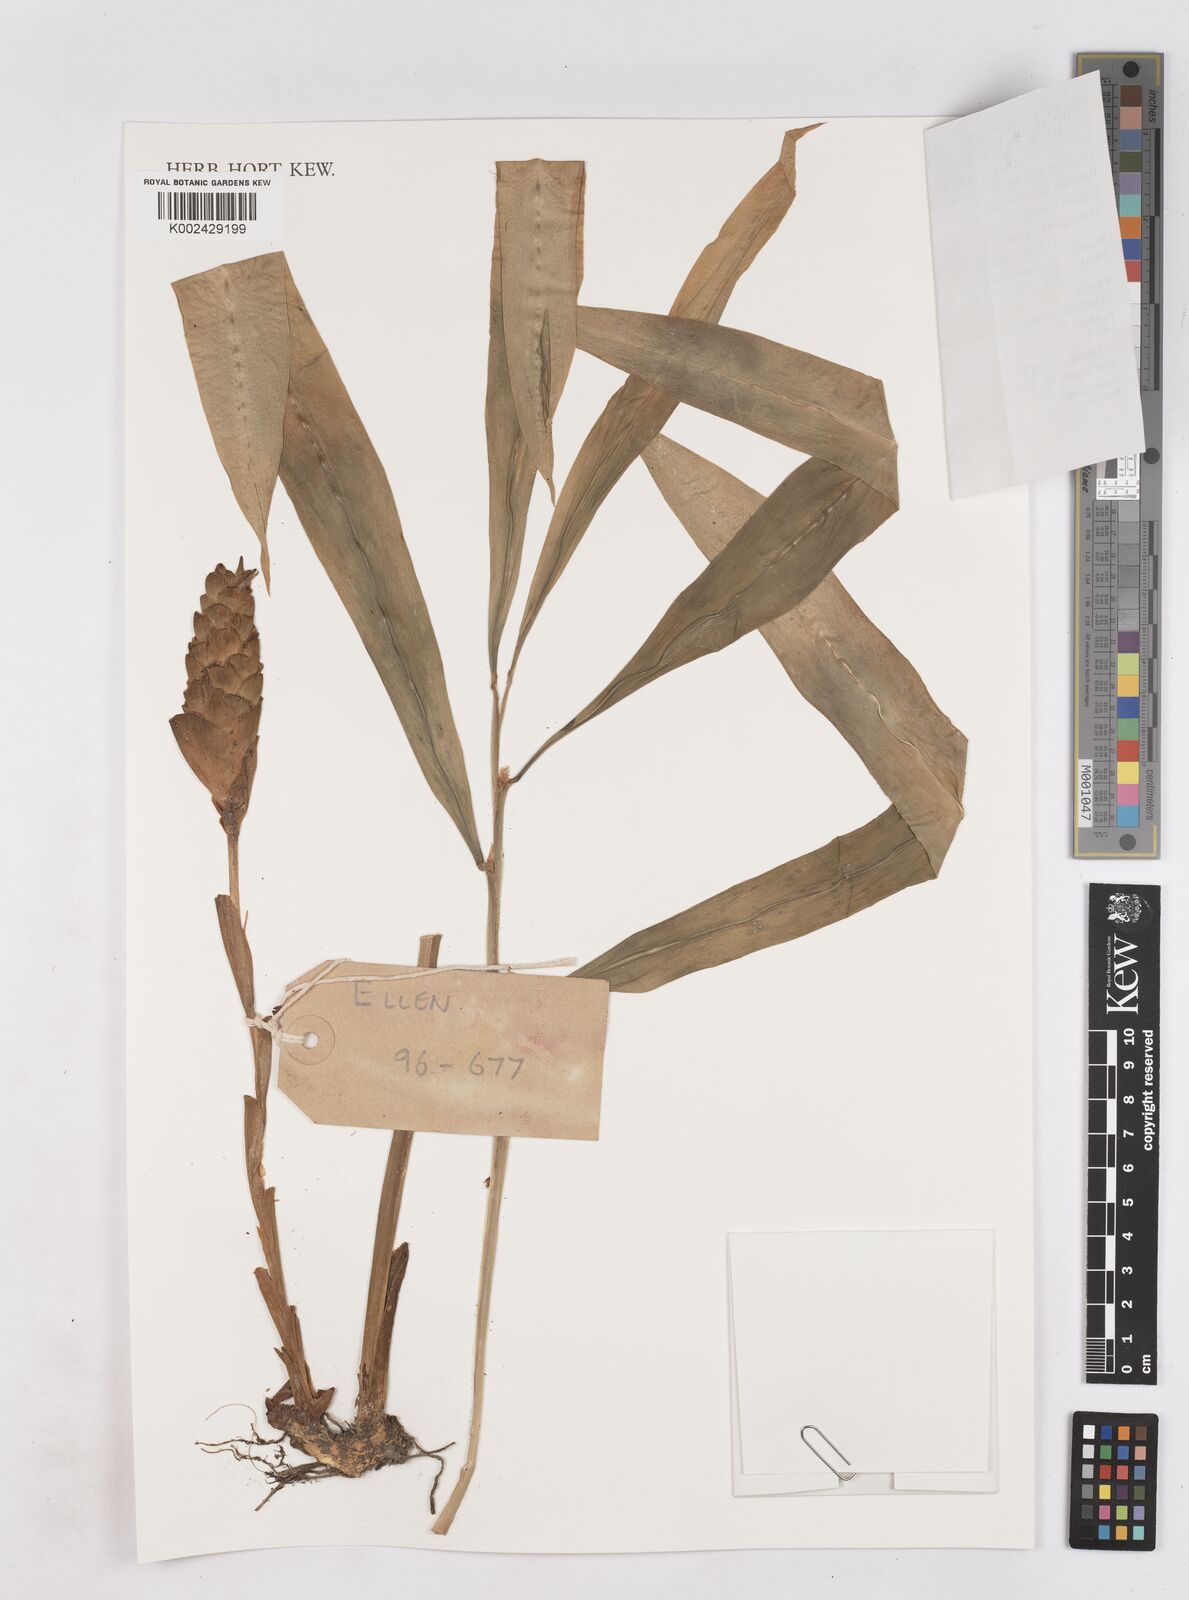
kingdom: Plantae
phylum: Tracheophyta
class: Liliopsida
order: Zingiberales
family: Zingiberaceae
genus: Zingiber
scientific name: Zingiber
